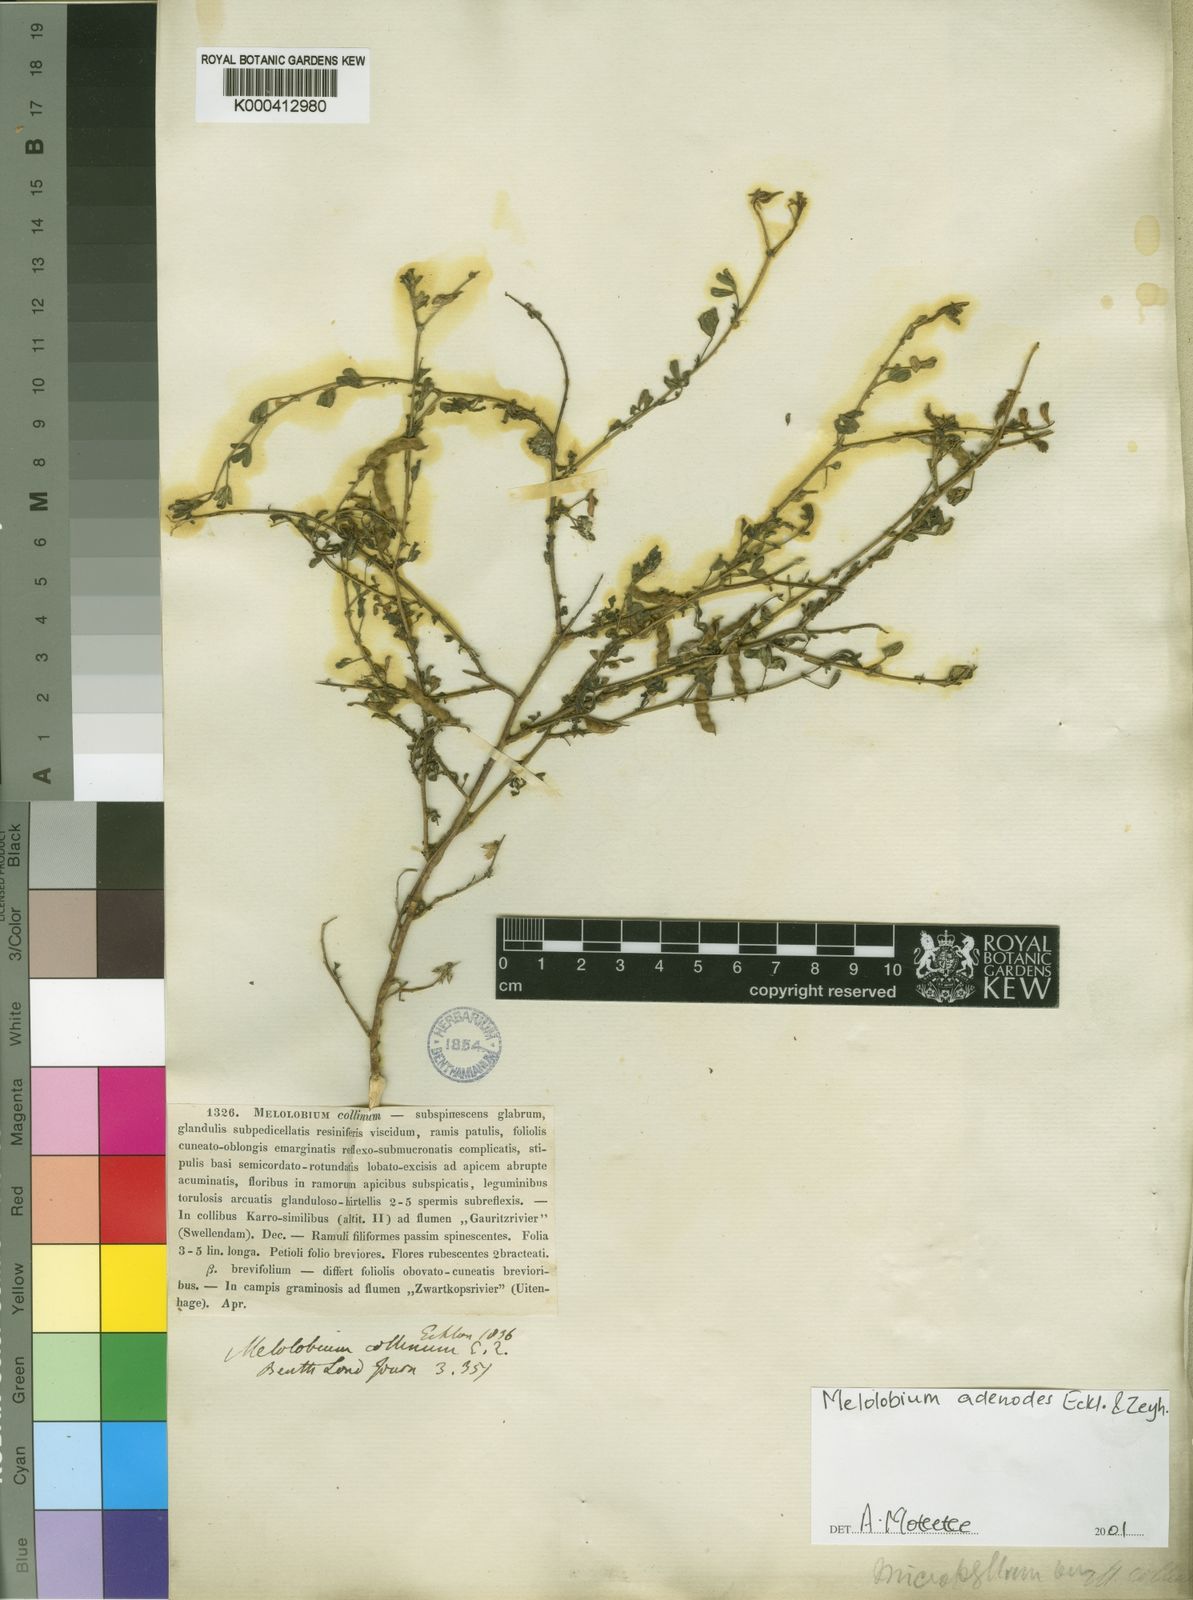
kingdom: Plantae
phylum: Tracheophyta
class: Magnoliopsida
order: Fabales
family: Fabaceae
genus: Melolobium
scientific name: Melolobium adenoides
